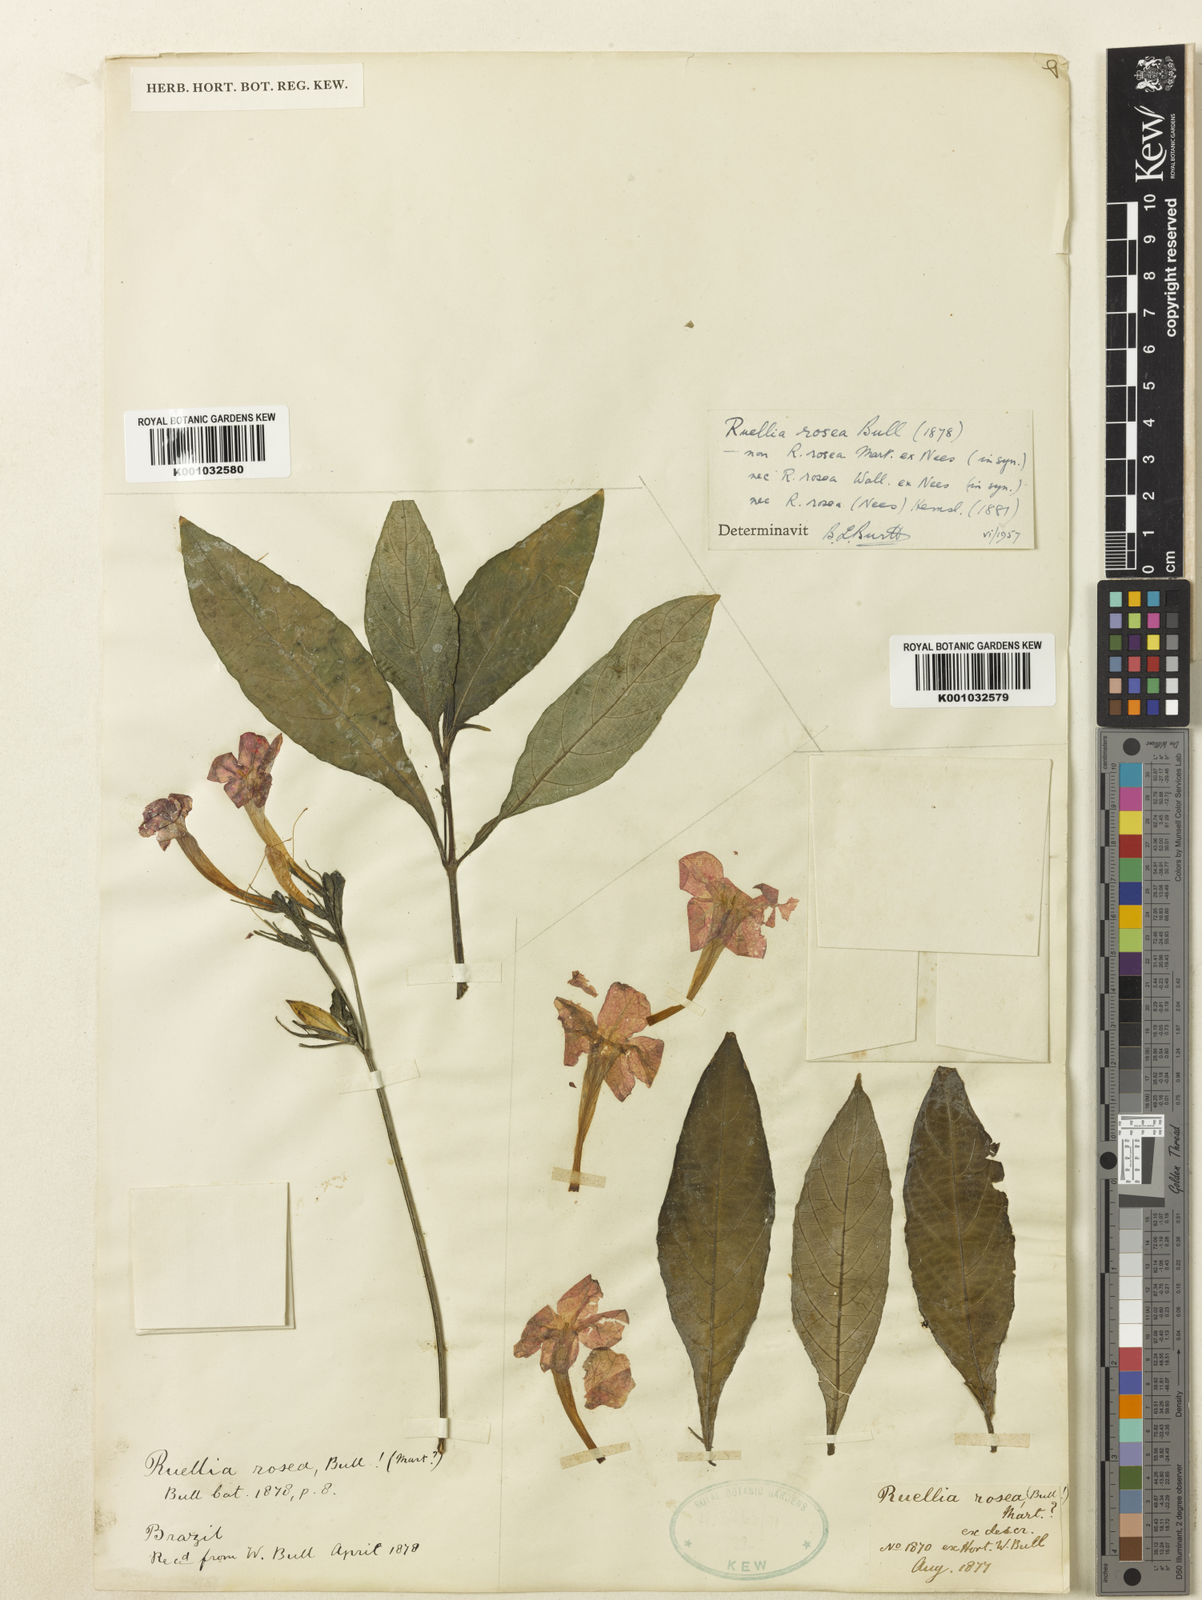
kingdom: Plantae
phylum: Tracheophyta
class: Magnoliopsida
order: Lamiales
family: Acanthaceae
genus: Ruellia
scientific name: Ruellia hirsutoglandulosa
